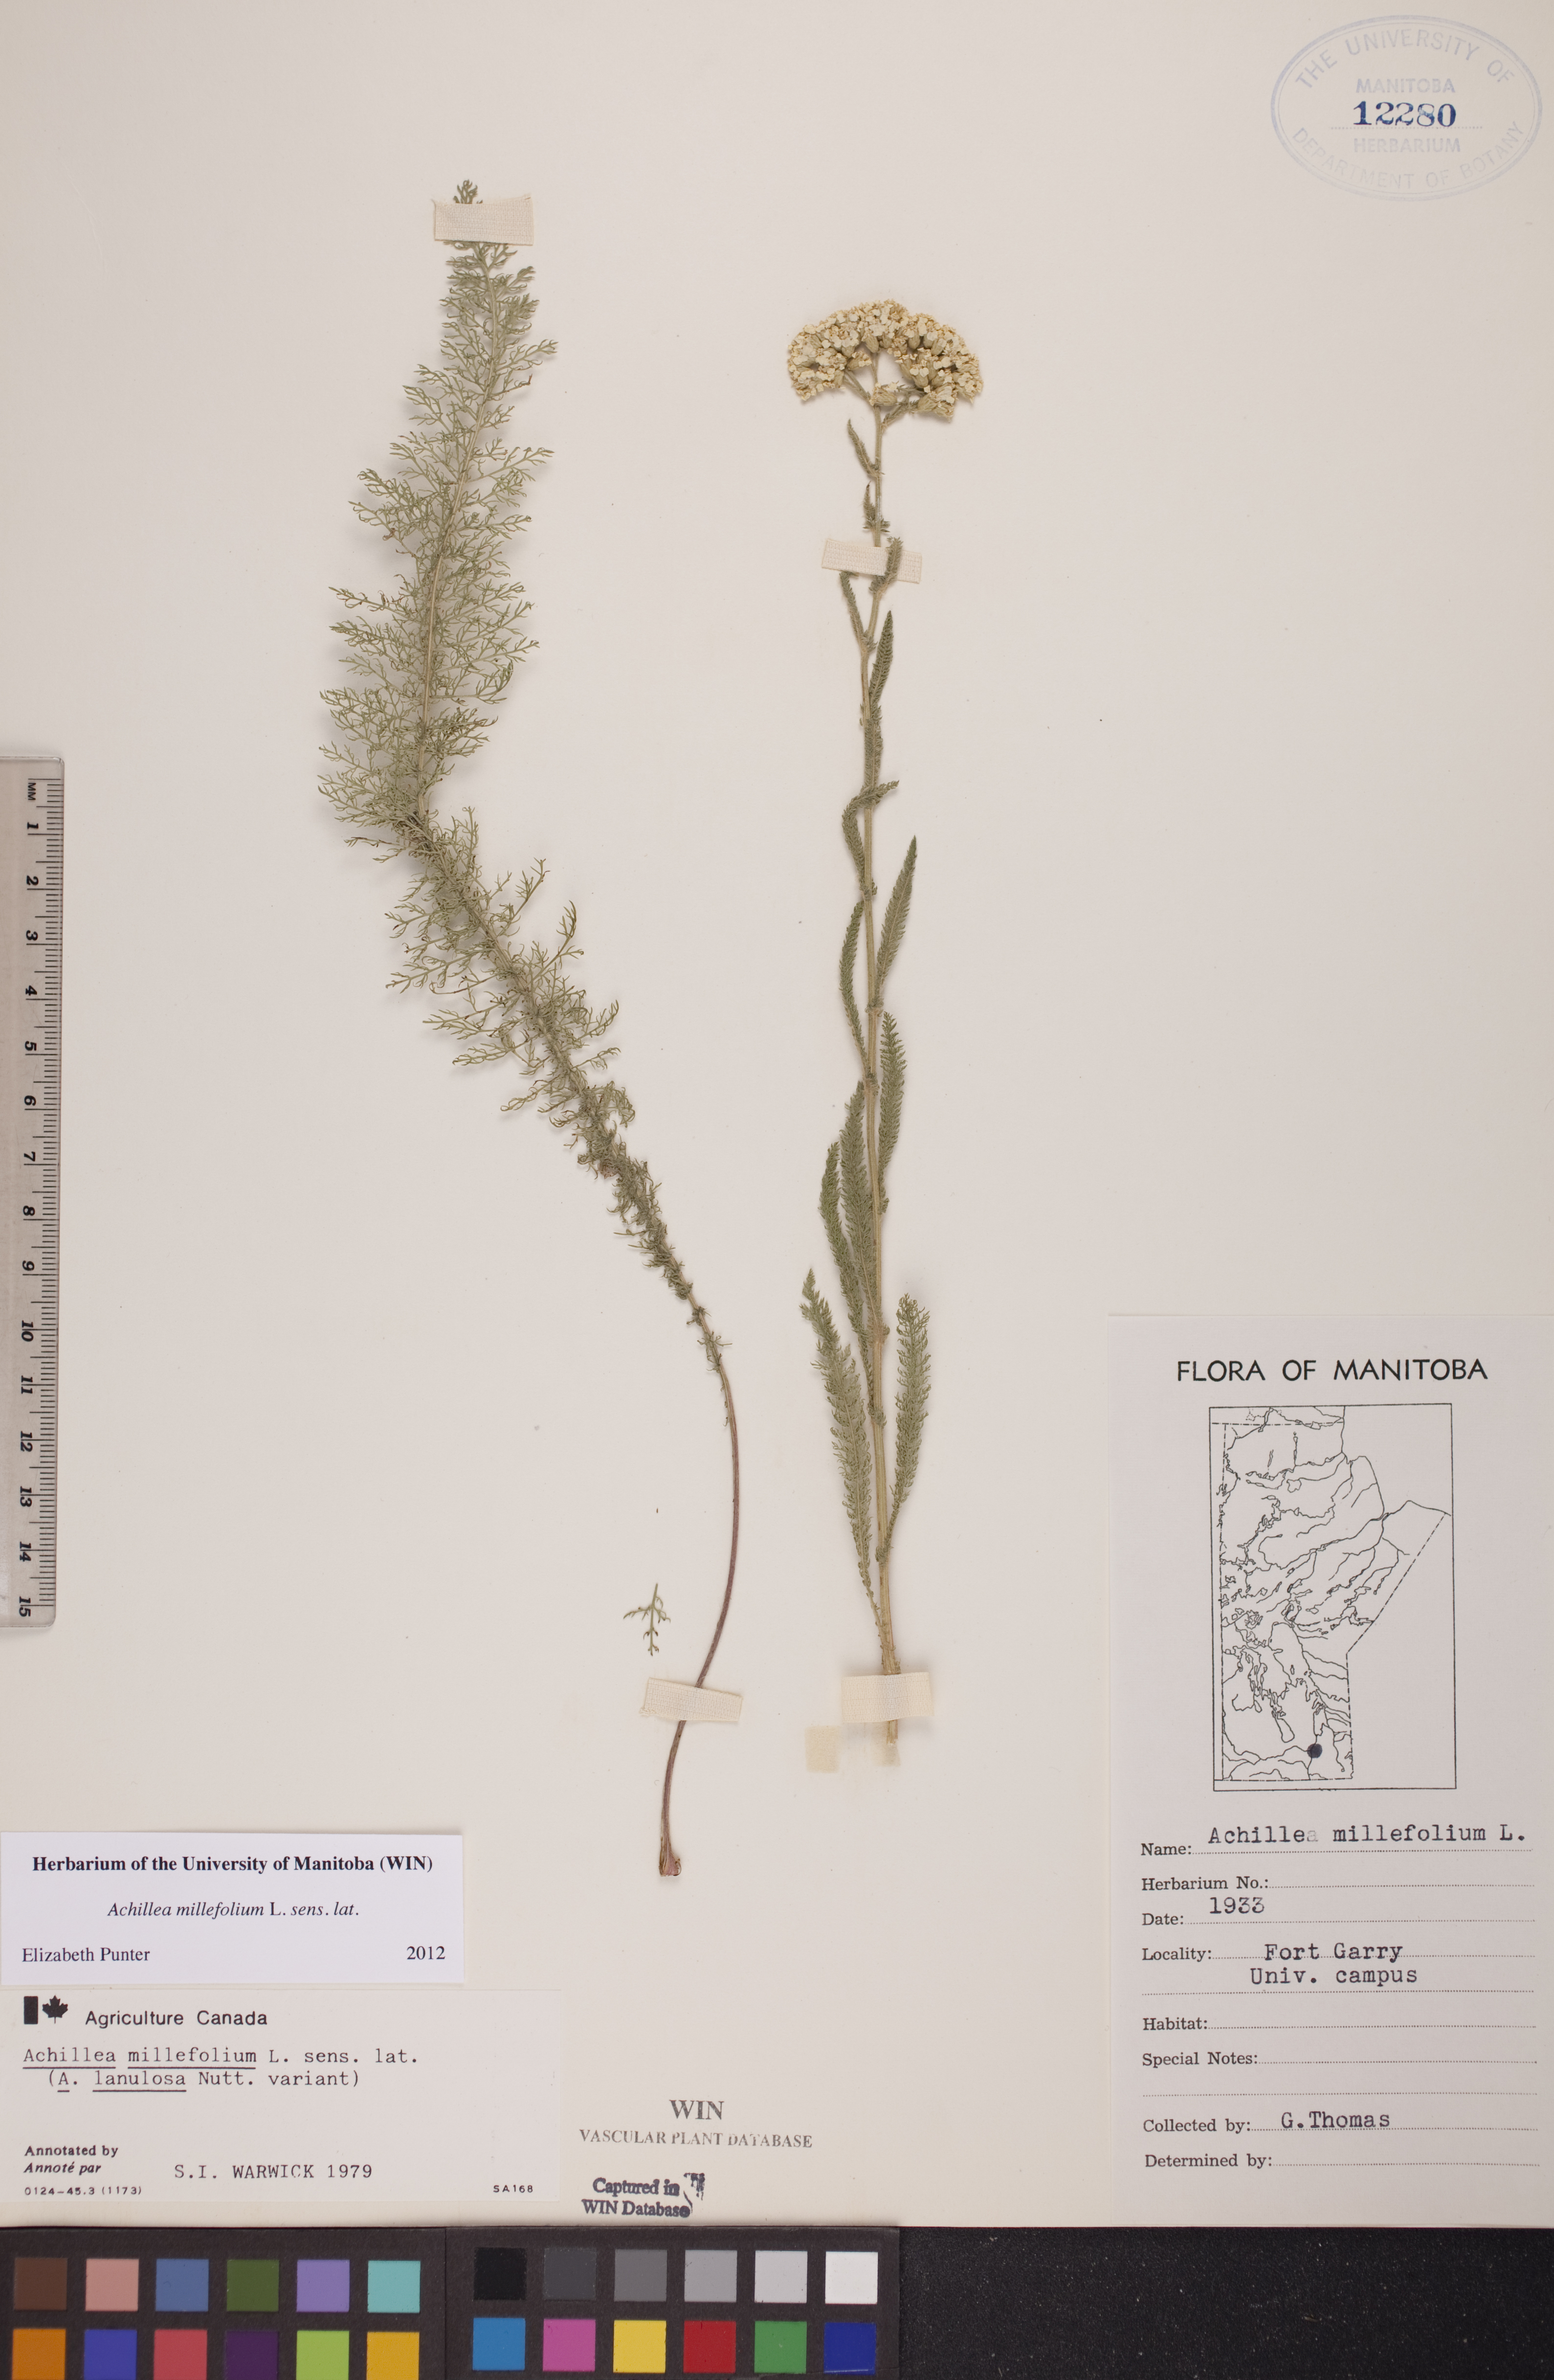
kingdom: Plantae
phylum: Tracheophyta
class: Magnoliopsida
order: Asterales
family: Asteraceae
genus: Achillea
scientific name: Achillea millefolium
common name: Yarrow
